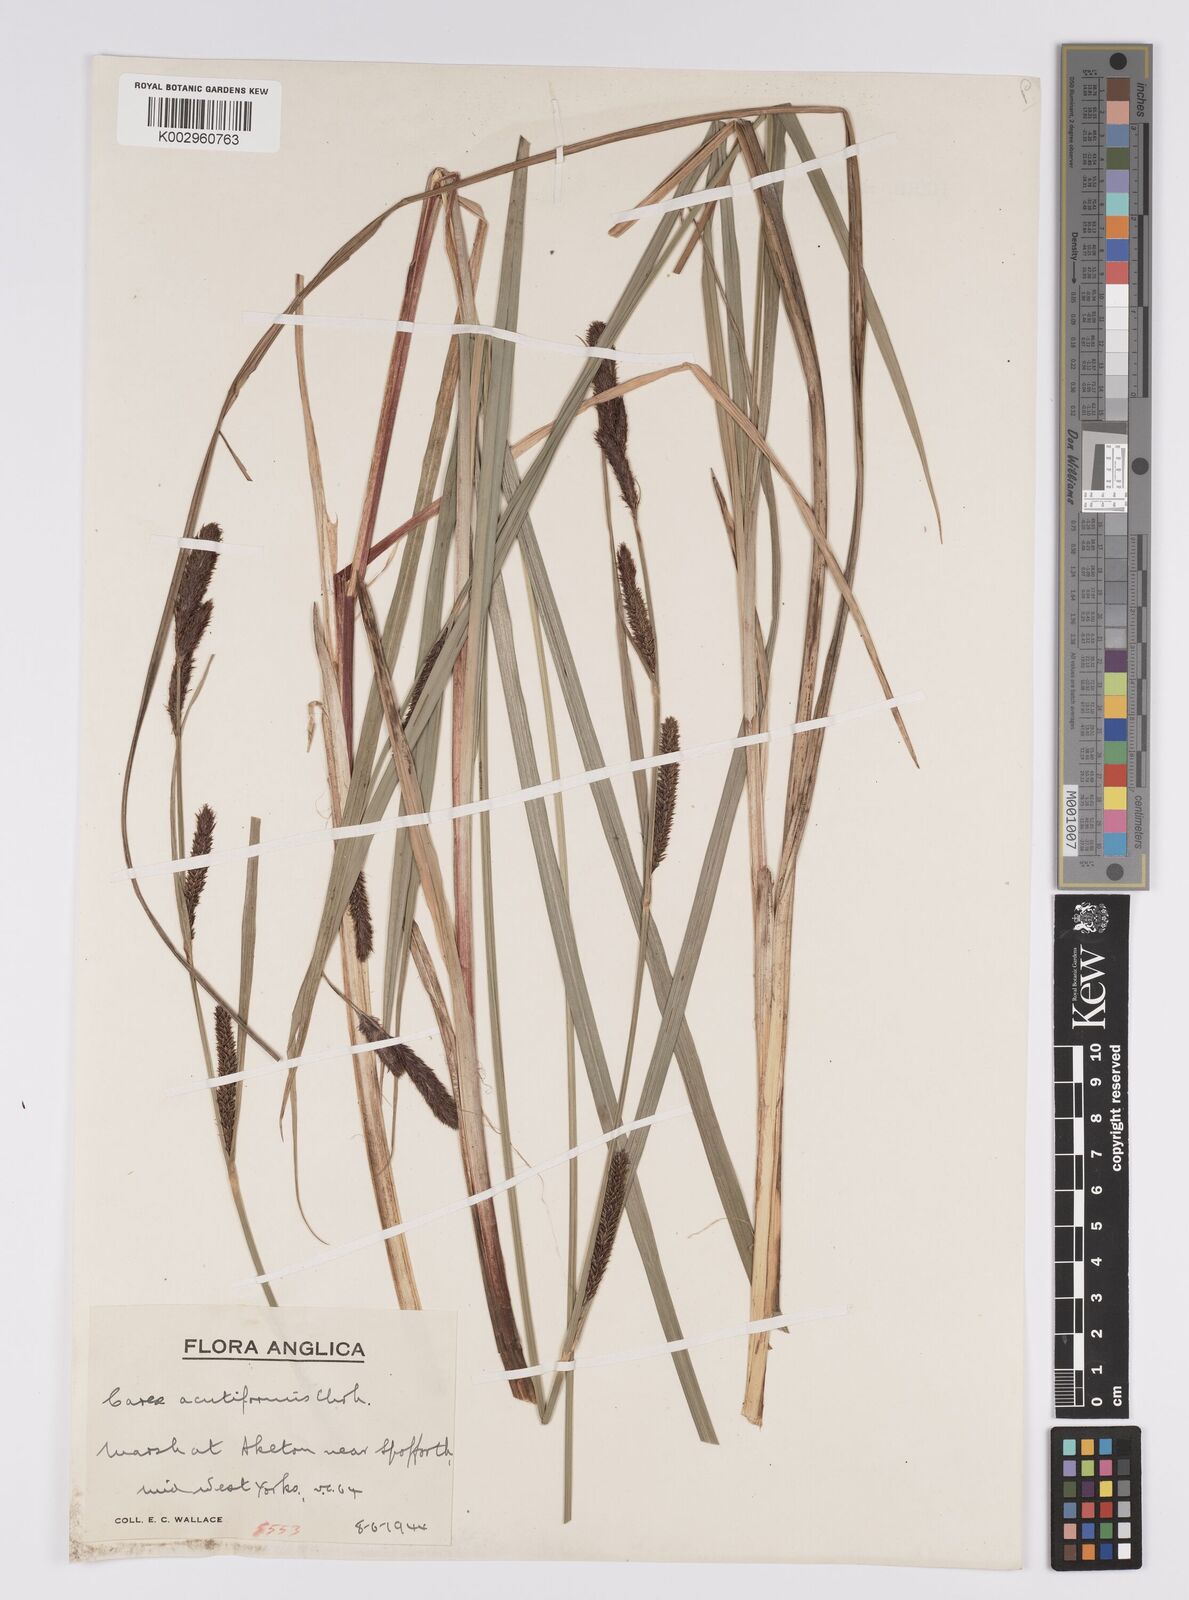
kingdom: Plantae
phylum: Tracheophyta
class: Liliopsida
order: Poales
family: Cyperaceae
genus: Carex
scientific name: Carex acutiformis
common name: Lesser pond-sedge
